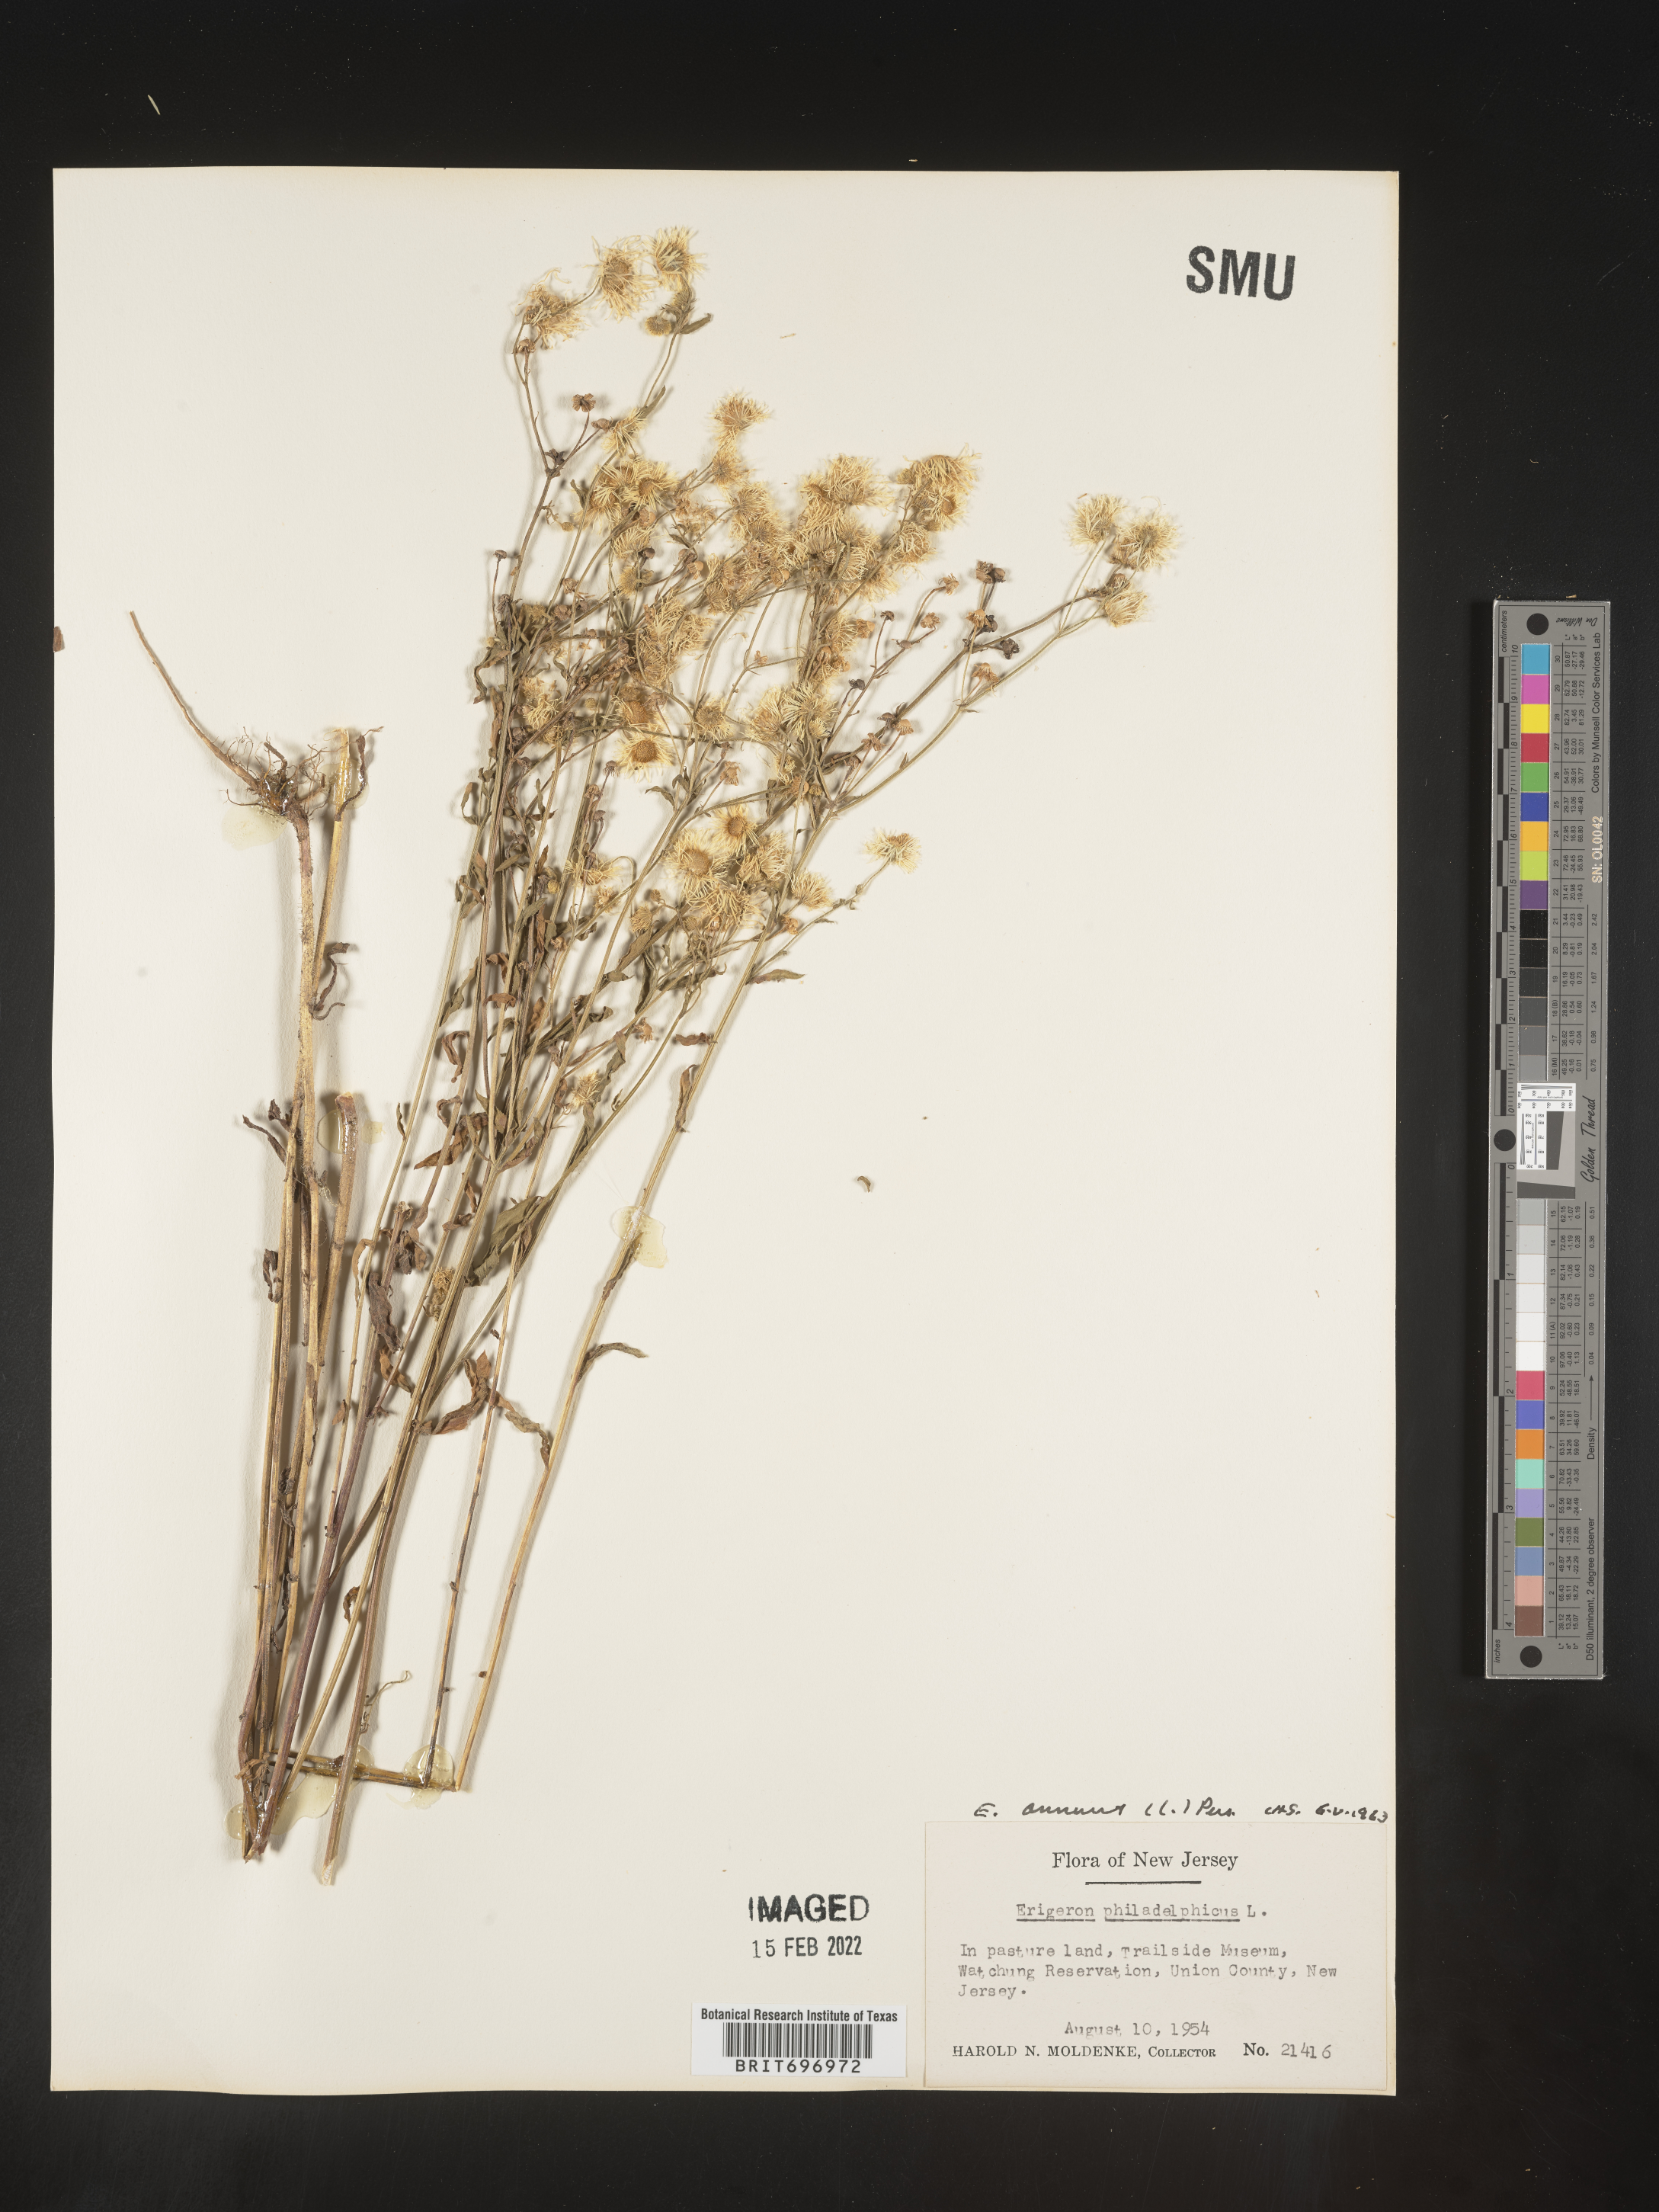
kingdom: Plantae
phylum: Tracheophyta
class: Magnoliopsida
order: Asterales
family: Asteraceae
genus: Erigeron
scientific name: Erigeron annuus
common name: Tall fleabane
